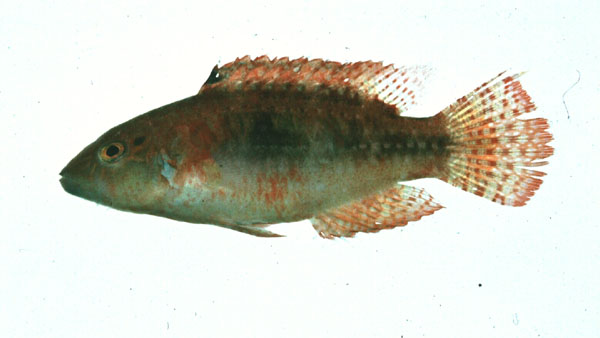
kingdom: Animalia
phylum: Chordata
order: Perciformes
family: Labridae
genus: Oxycheilinus
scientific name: Oxycheilinus bimaculatus
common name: Comettailed wrasse
